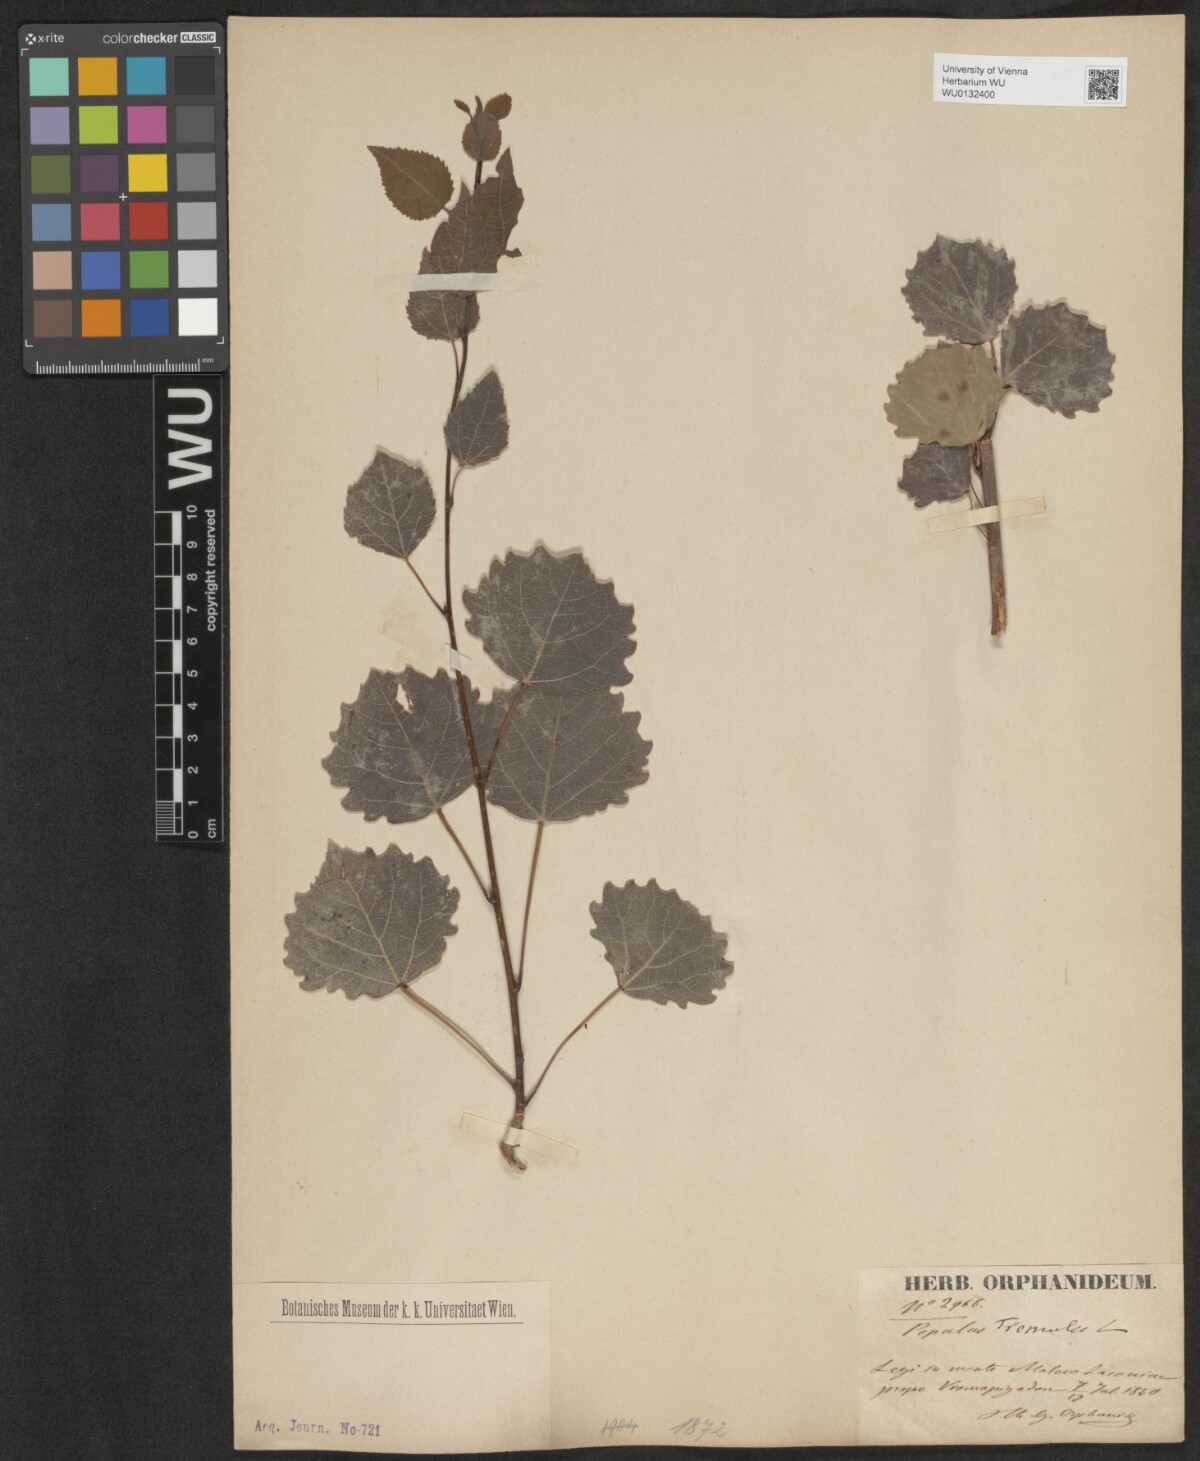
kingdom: Plantae
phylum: Tracheophyta
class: Magnoliopsida
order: Malpighiales
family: Salicaceae
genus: Populus
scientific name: Populus tremula
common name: European aspen
